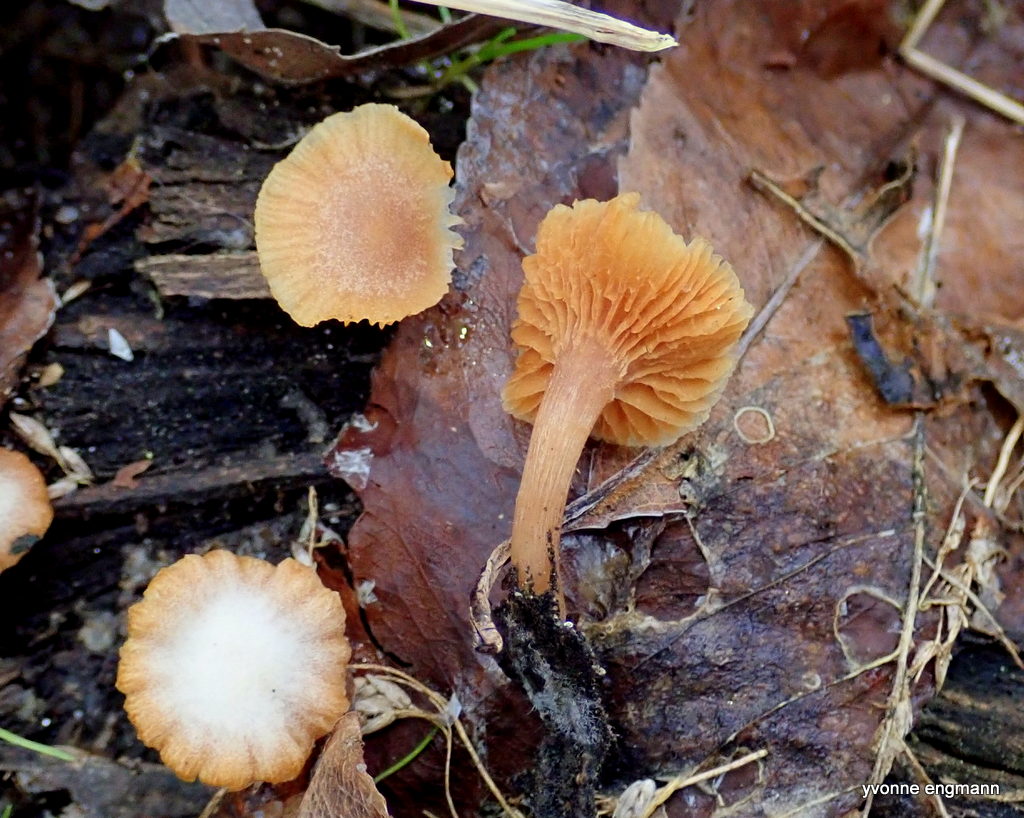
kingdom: Fungi
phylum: Basidiomycota
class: Agaricomycetes
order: Agaricales
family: Tubariaceae
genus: Tubaria
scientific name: Tubaria furfuracea
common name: kliddet fnughat
